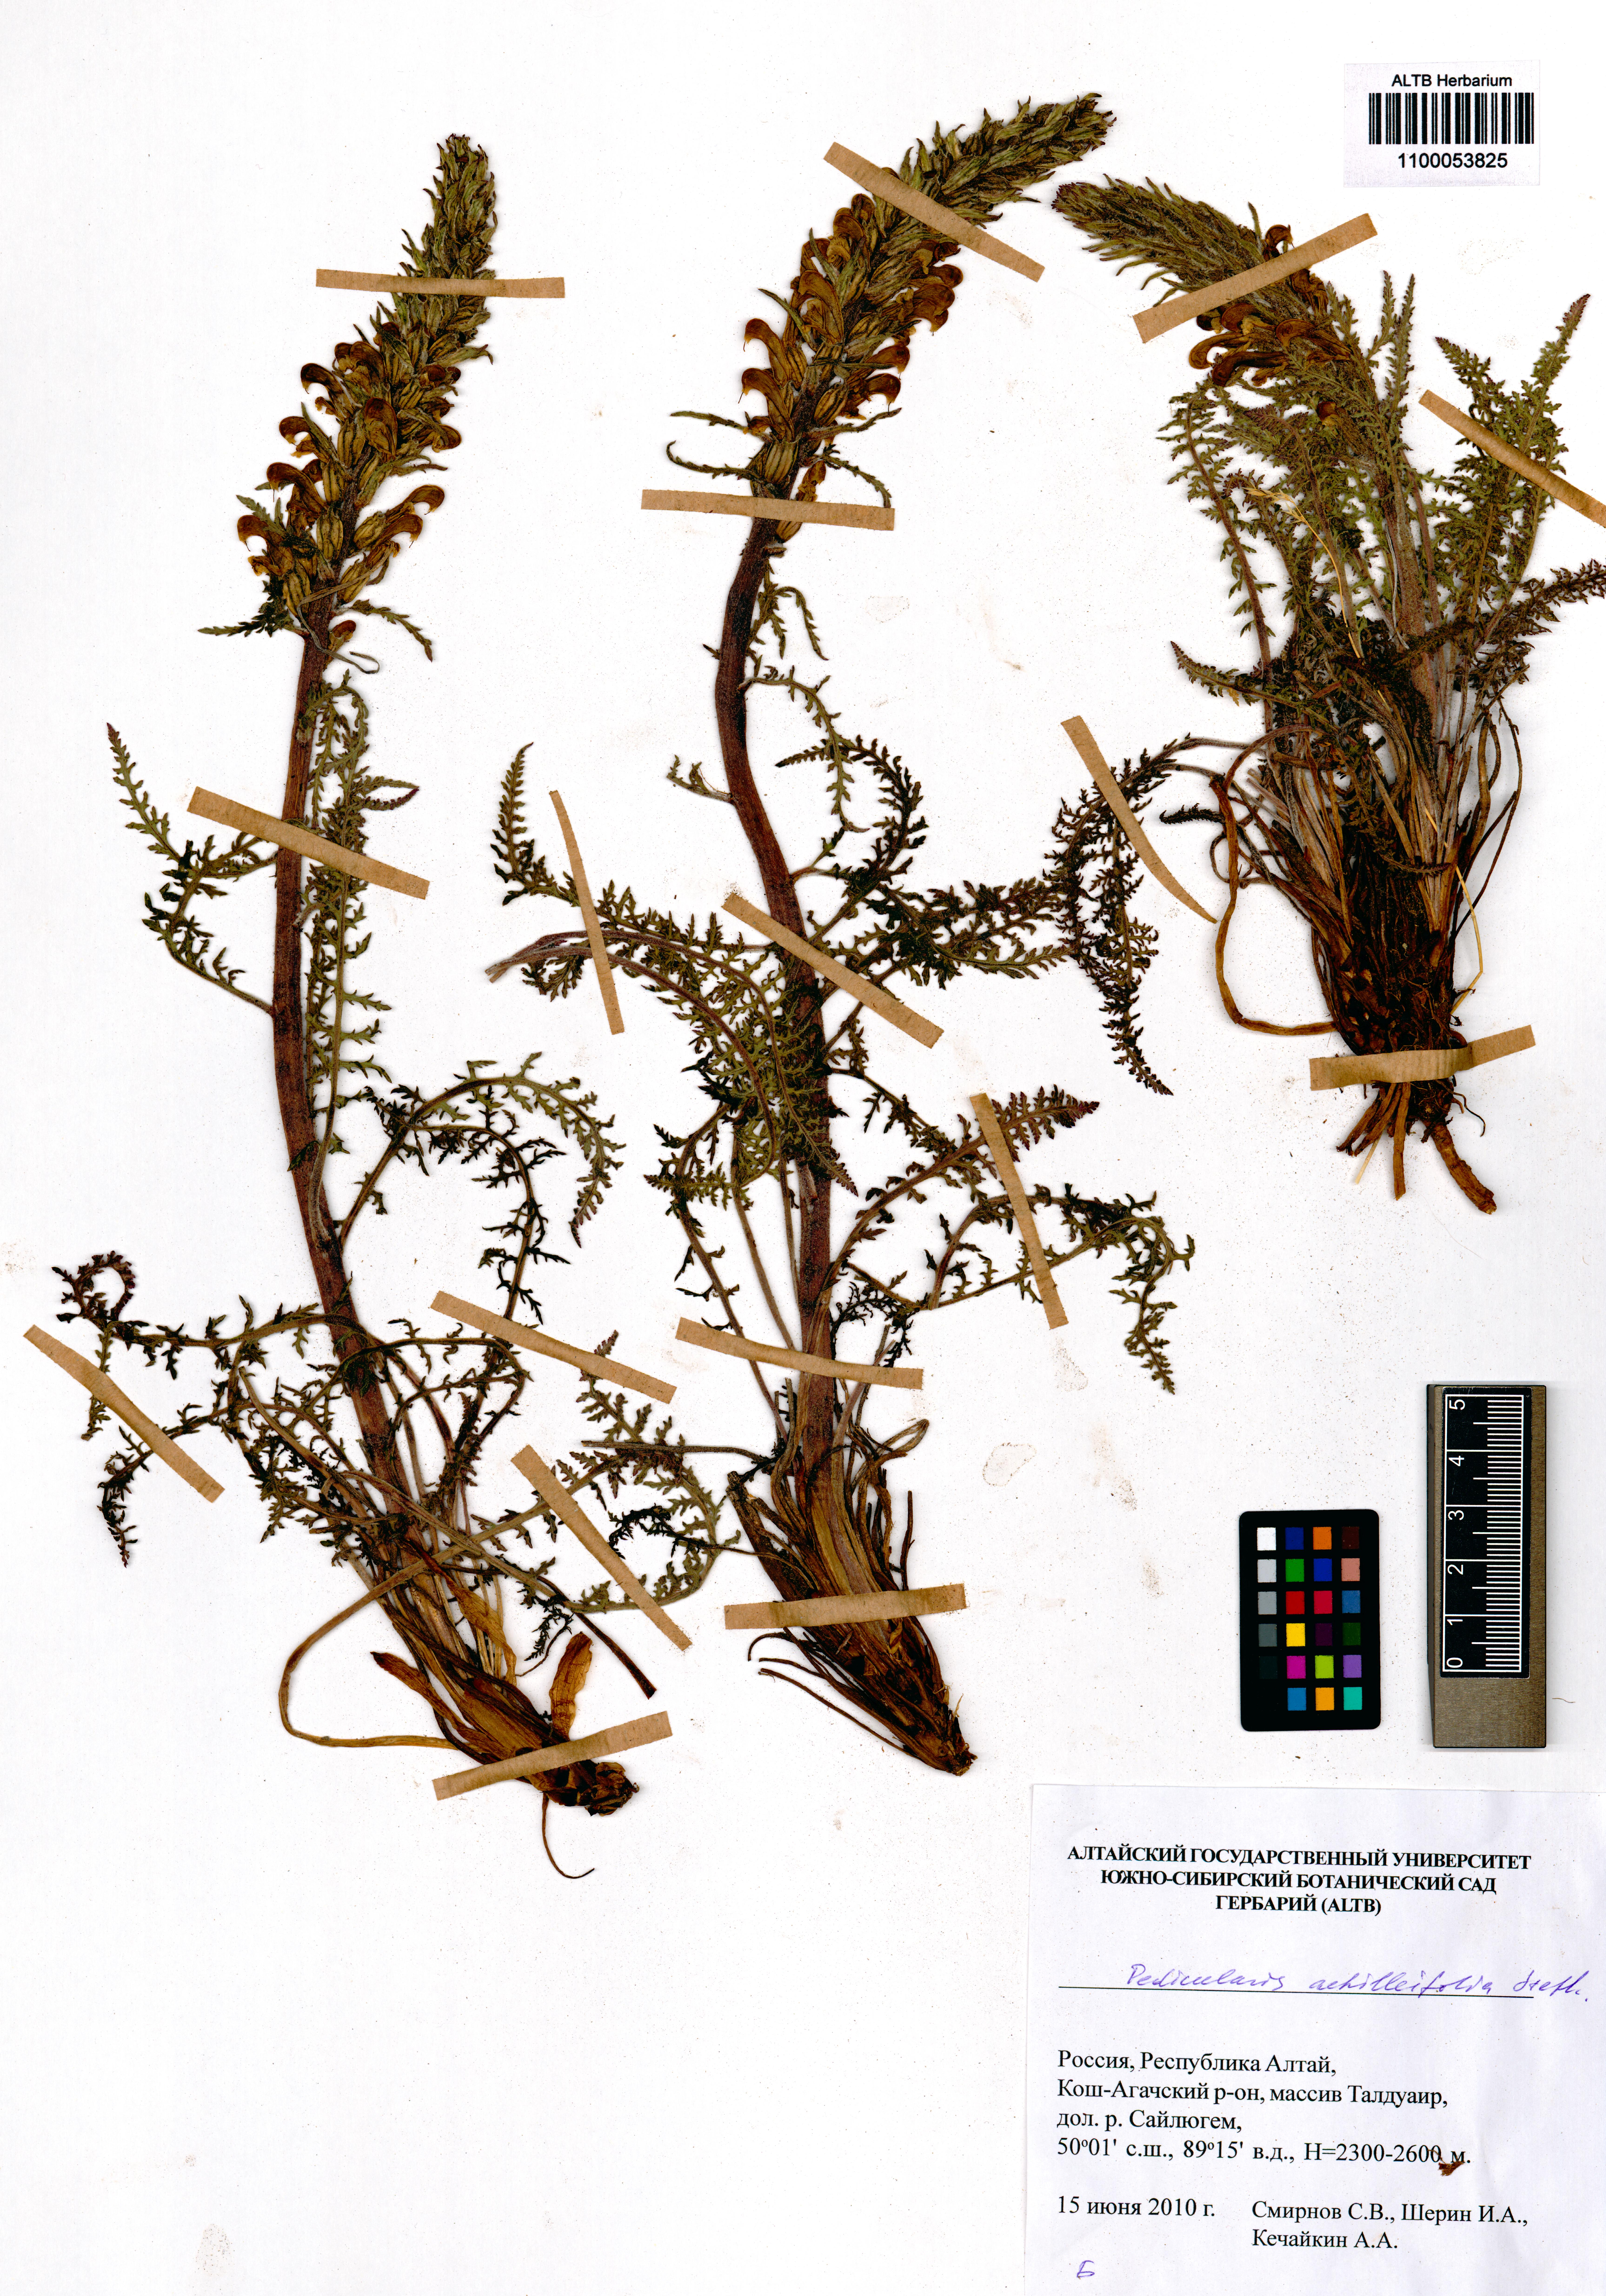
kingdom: Plantae
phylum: Tracheophyta
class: Magnoliopsida
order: Lamiales
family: Orobanchaceae
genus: Pedicularis
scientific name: Pedicularis achilleifolia
